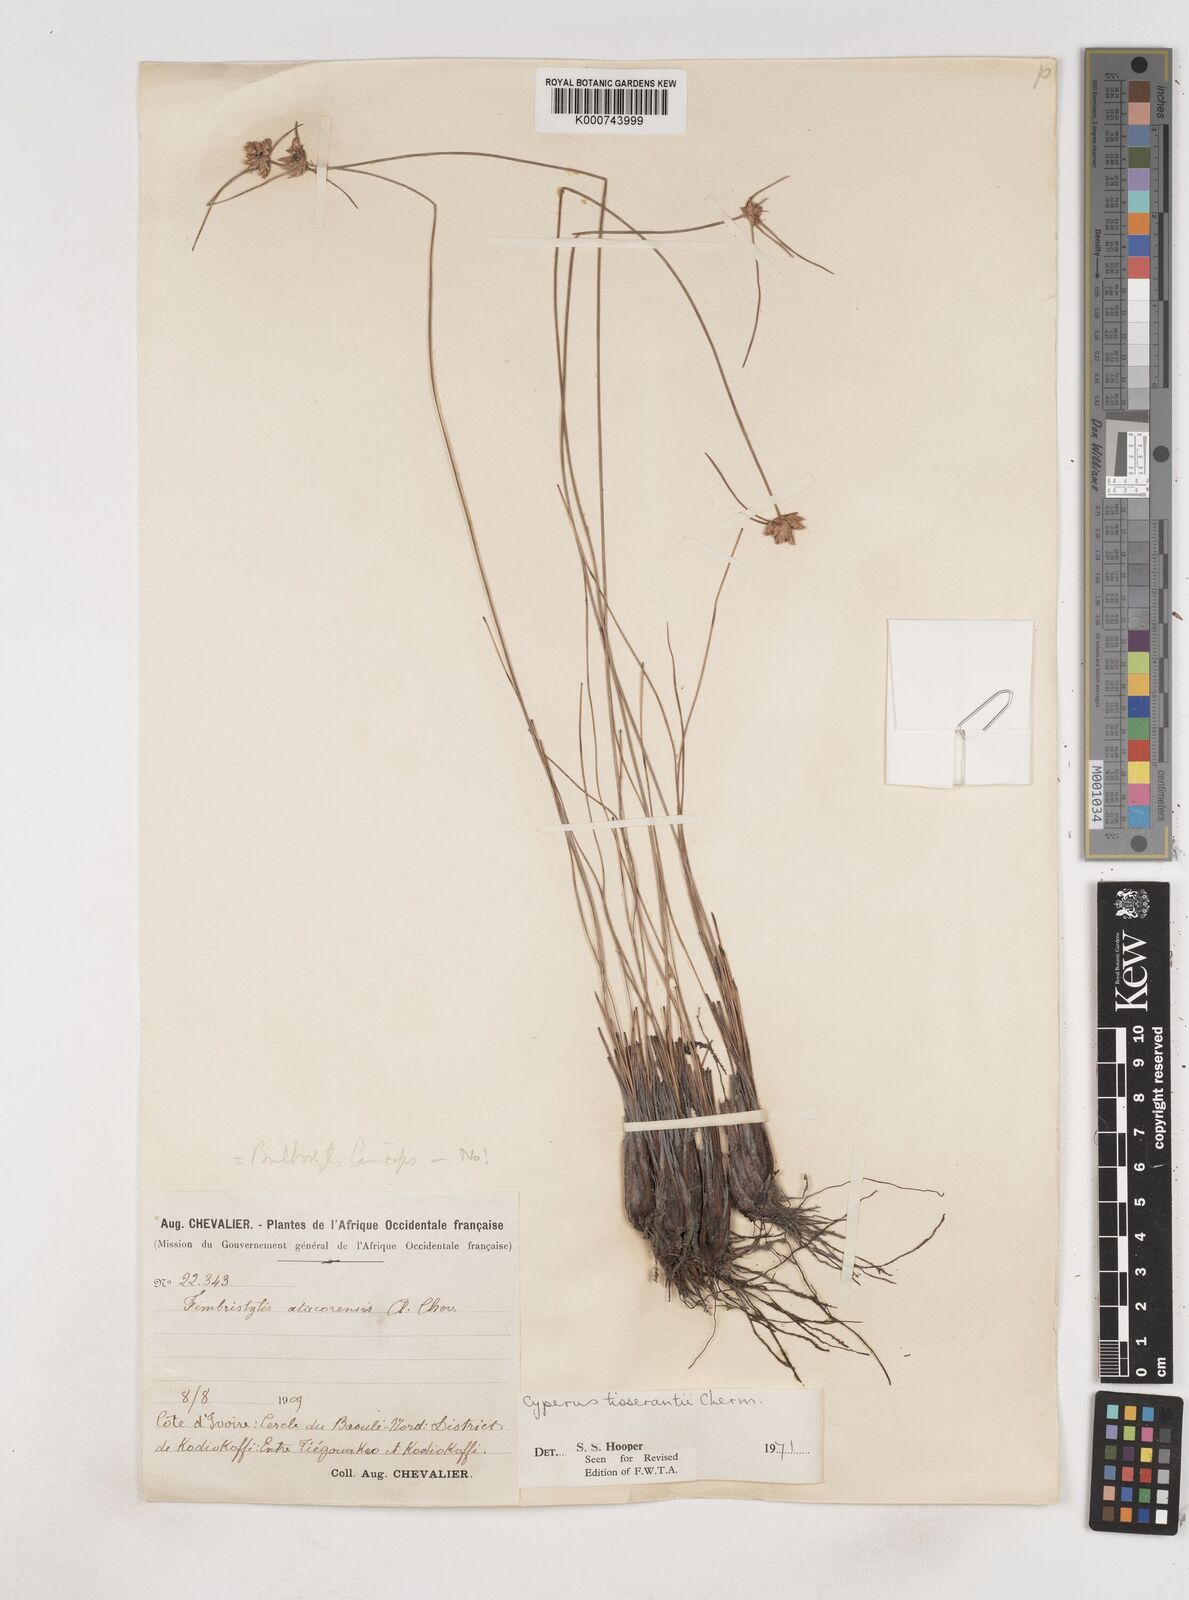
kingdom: Plantae
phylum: Tracheophyta
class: Liliopsida
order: Poales
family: Cyperaceae
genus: Cyperus
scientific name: Cyperus niveus
